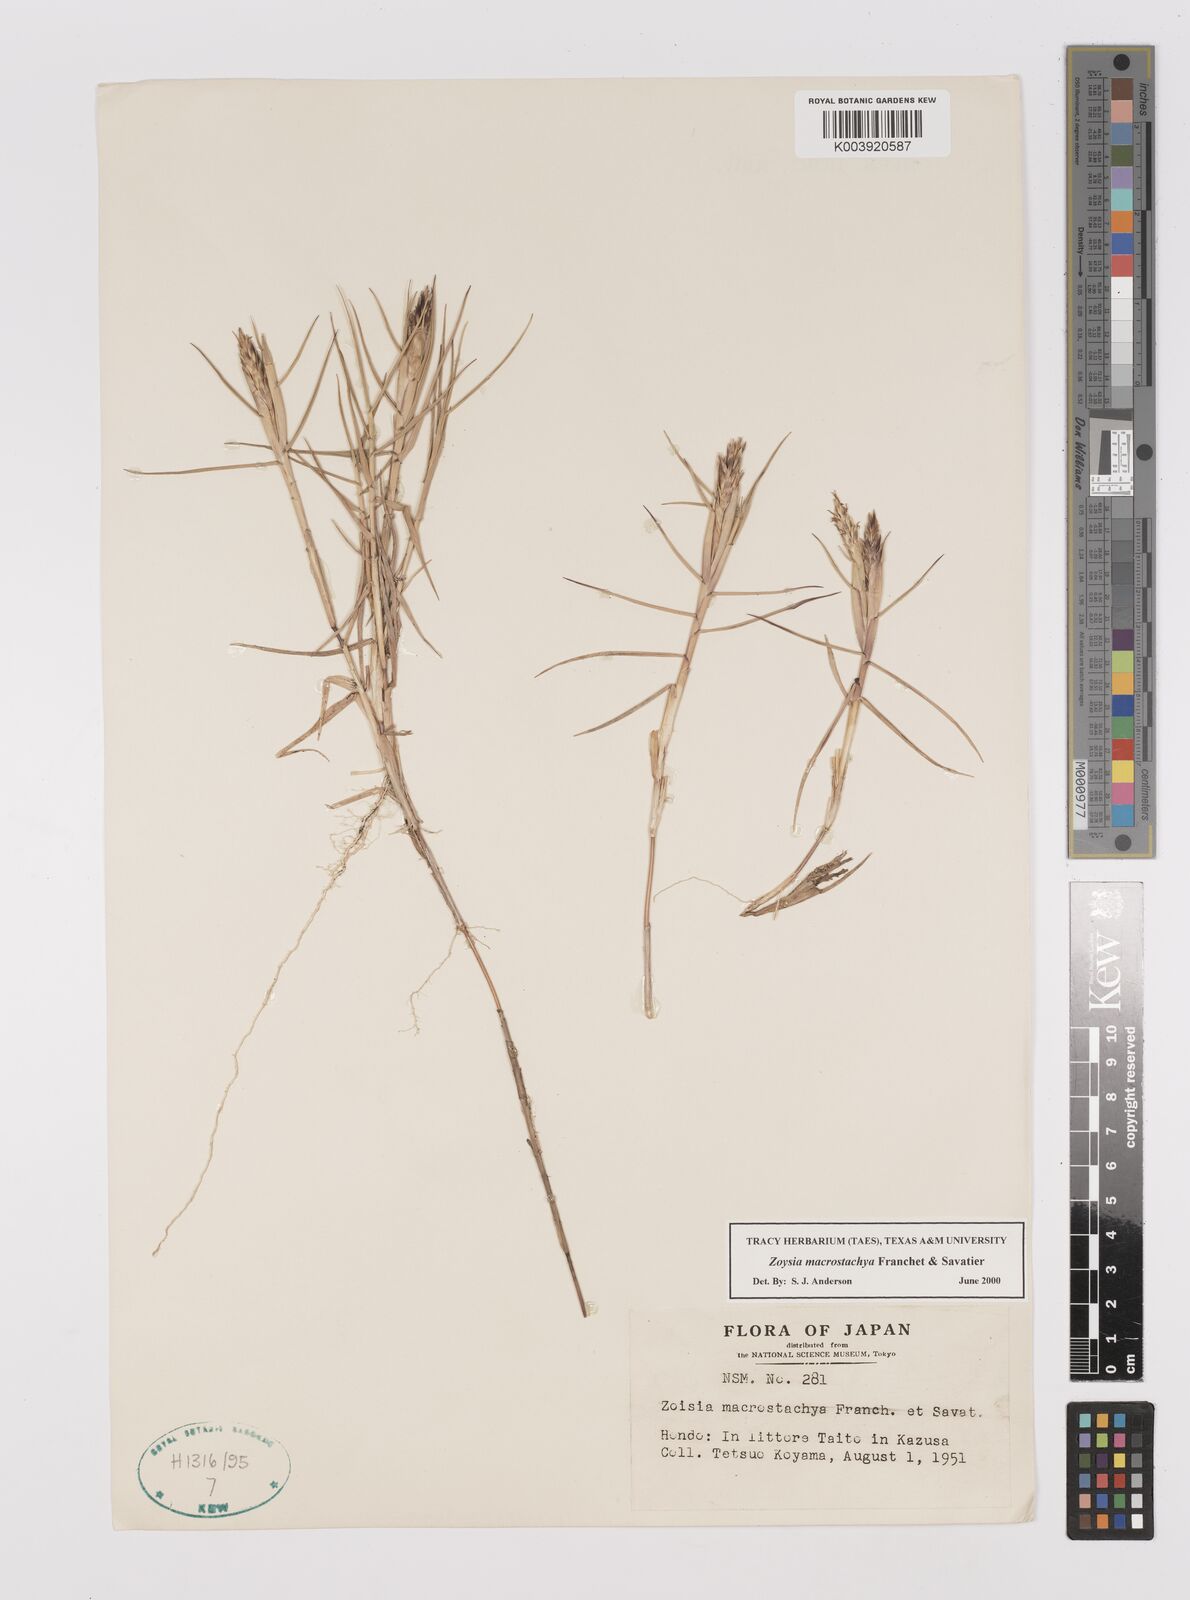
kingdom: Plantae
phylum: Tracheophyta
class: Liliopsida
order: Poales
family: Poaceae
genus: Zoysia
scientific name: Zoysia macrostachya
